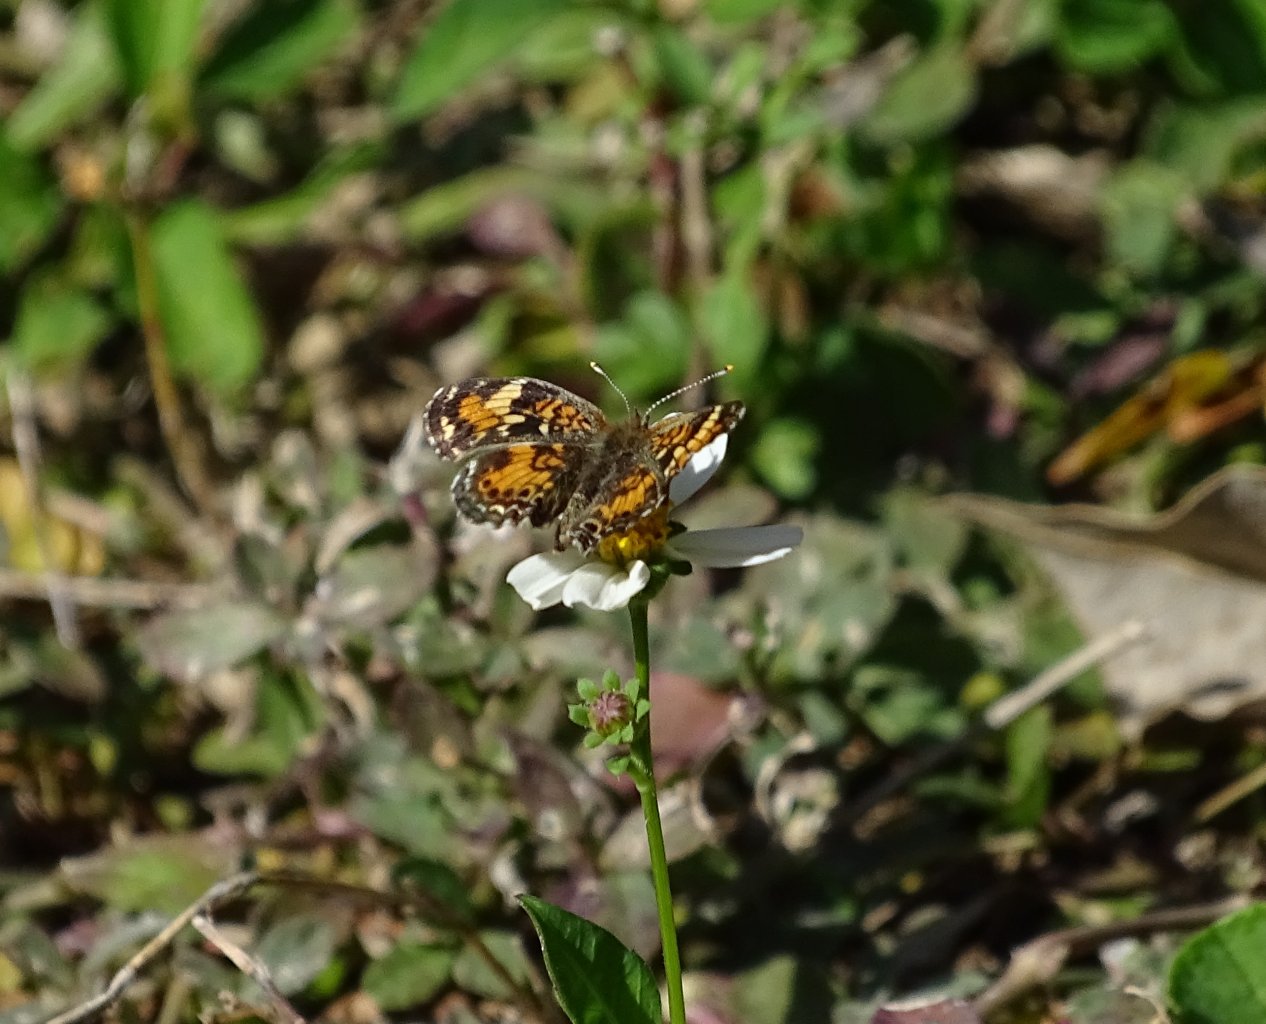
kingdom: Animalia
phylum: Arthropoda
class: Insecta
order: Lepidoptera
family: Nymphalidae
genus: Phyciodes
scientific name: Phyciodes phaon
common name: Phaon Crescent
